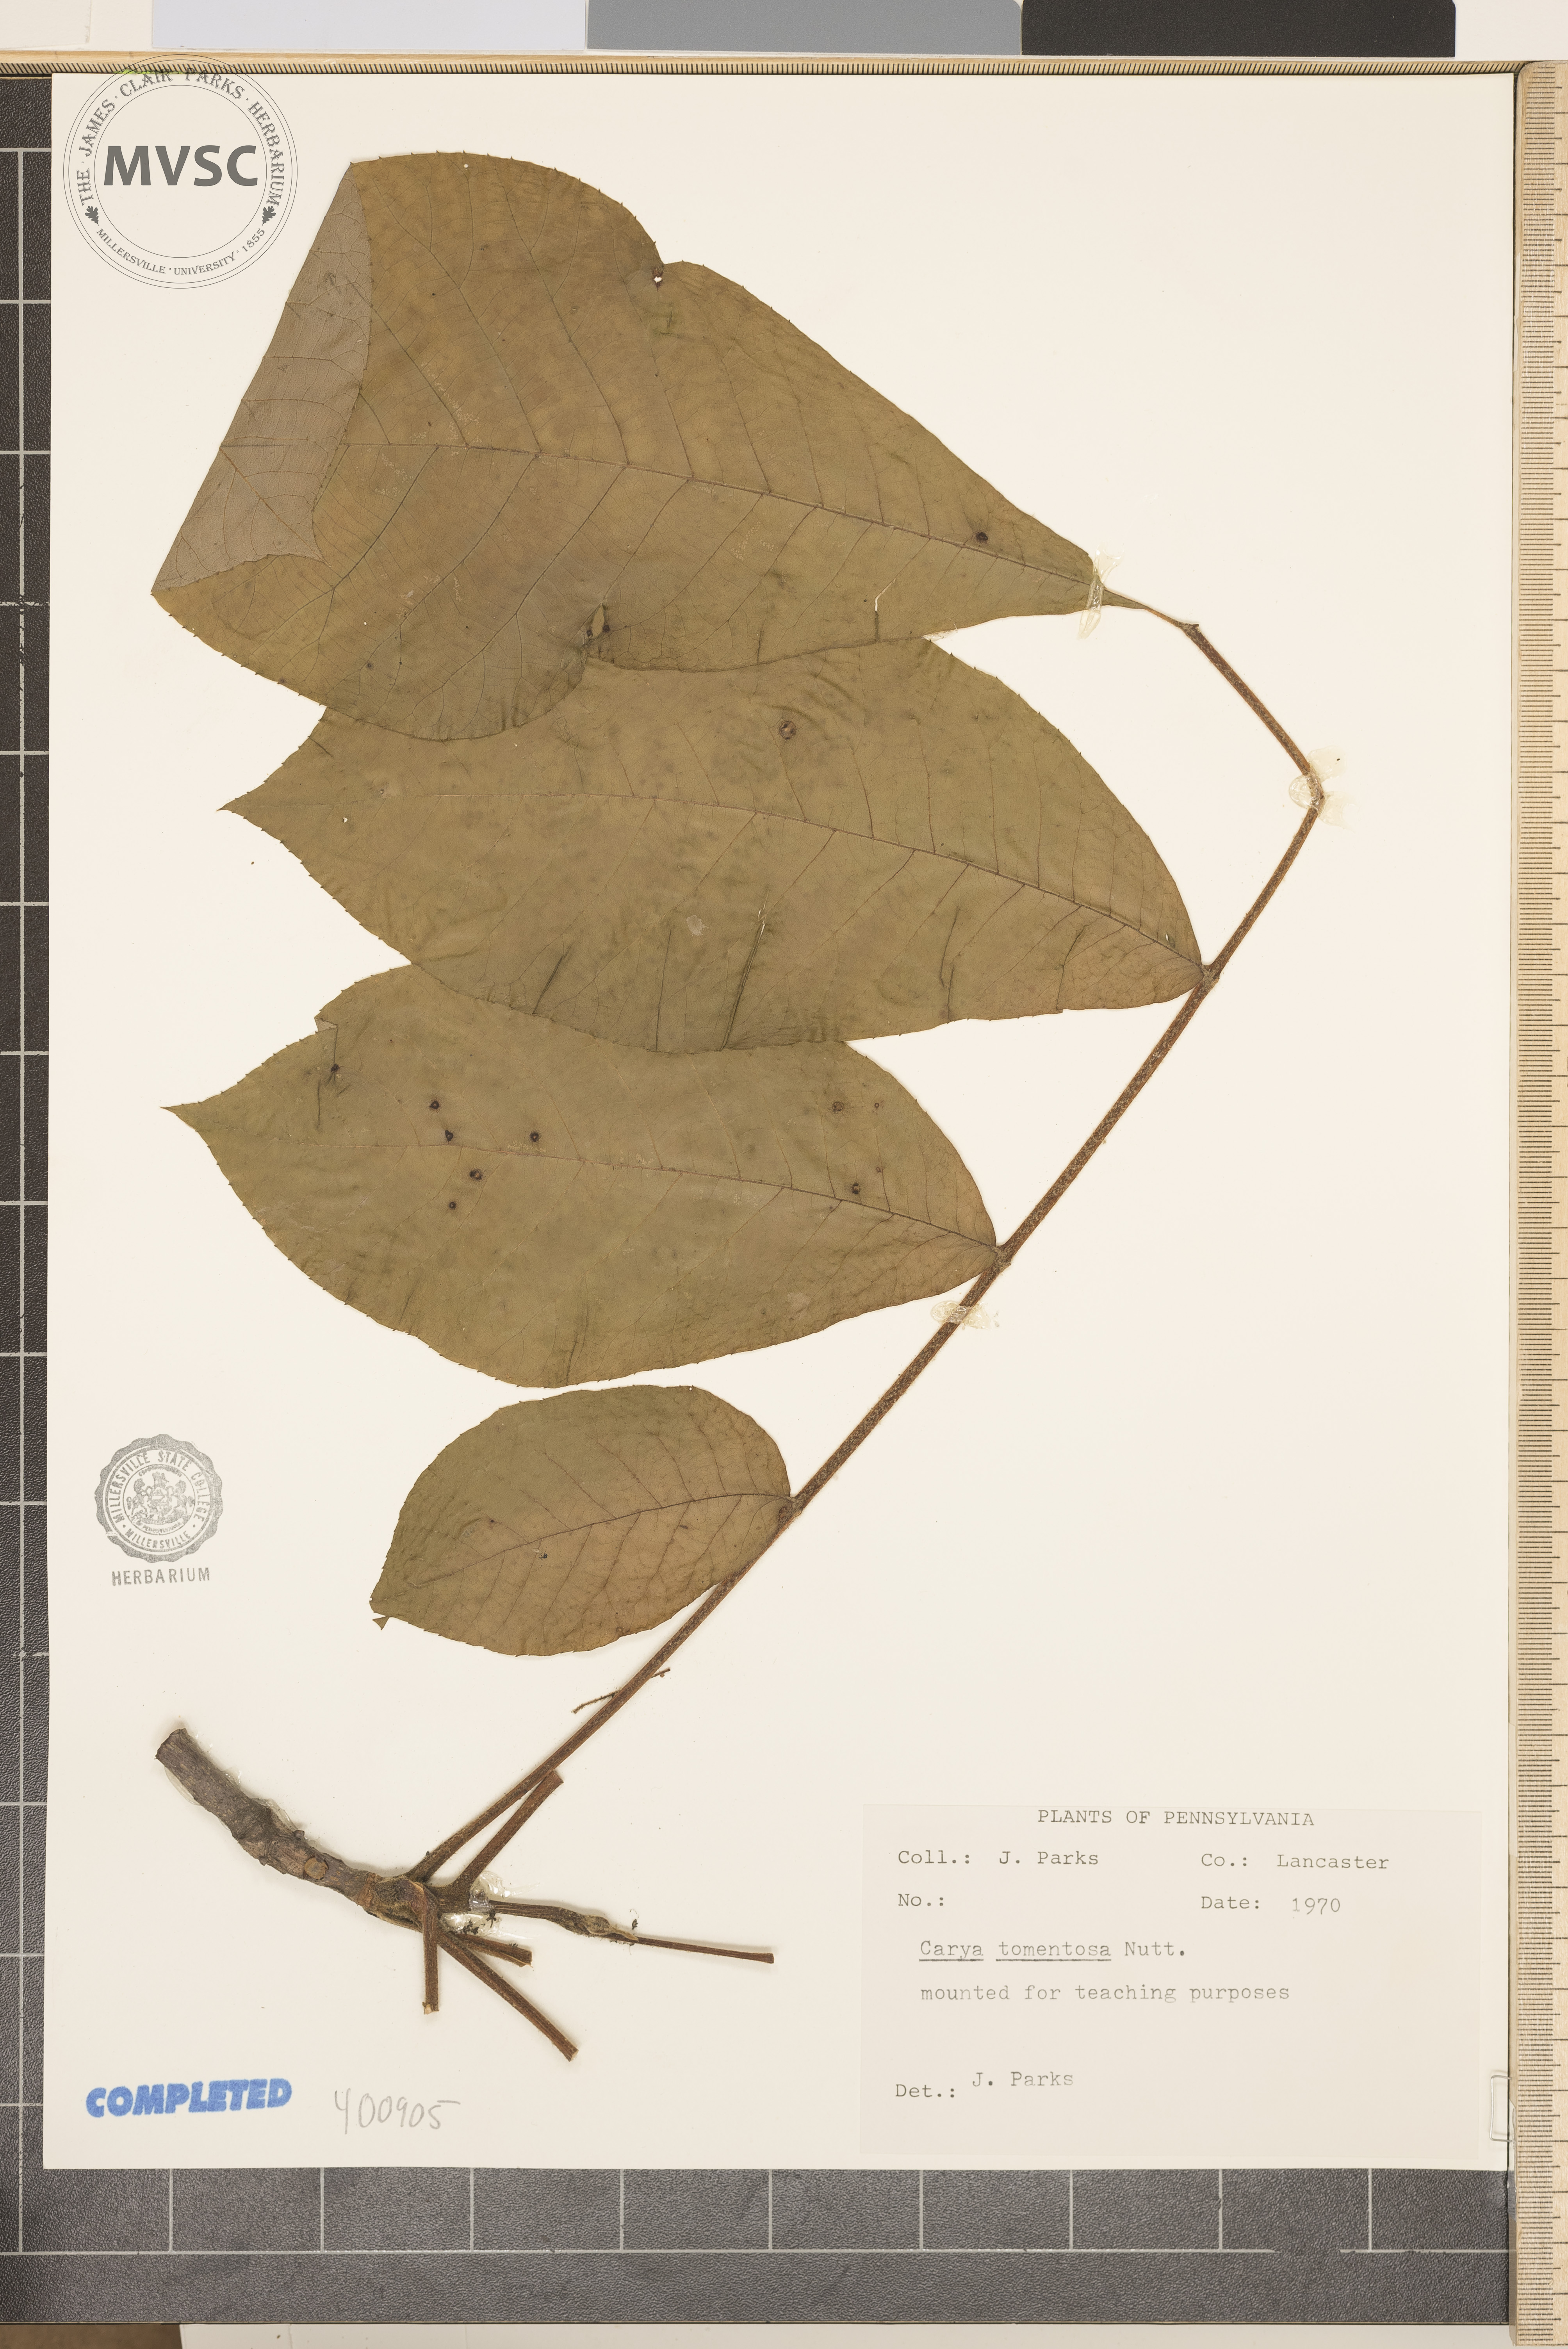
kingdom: Plantae
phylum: Tracheophyta
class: Magnoliopsida
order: Fagales
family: Juglandaceae
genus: Carya
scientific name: Carya alba
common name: mockernut hickory
